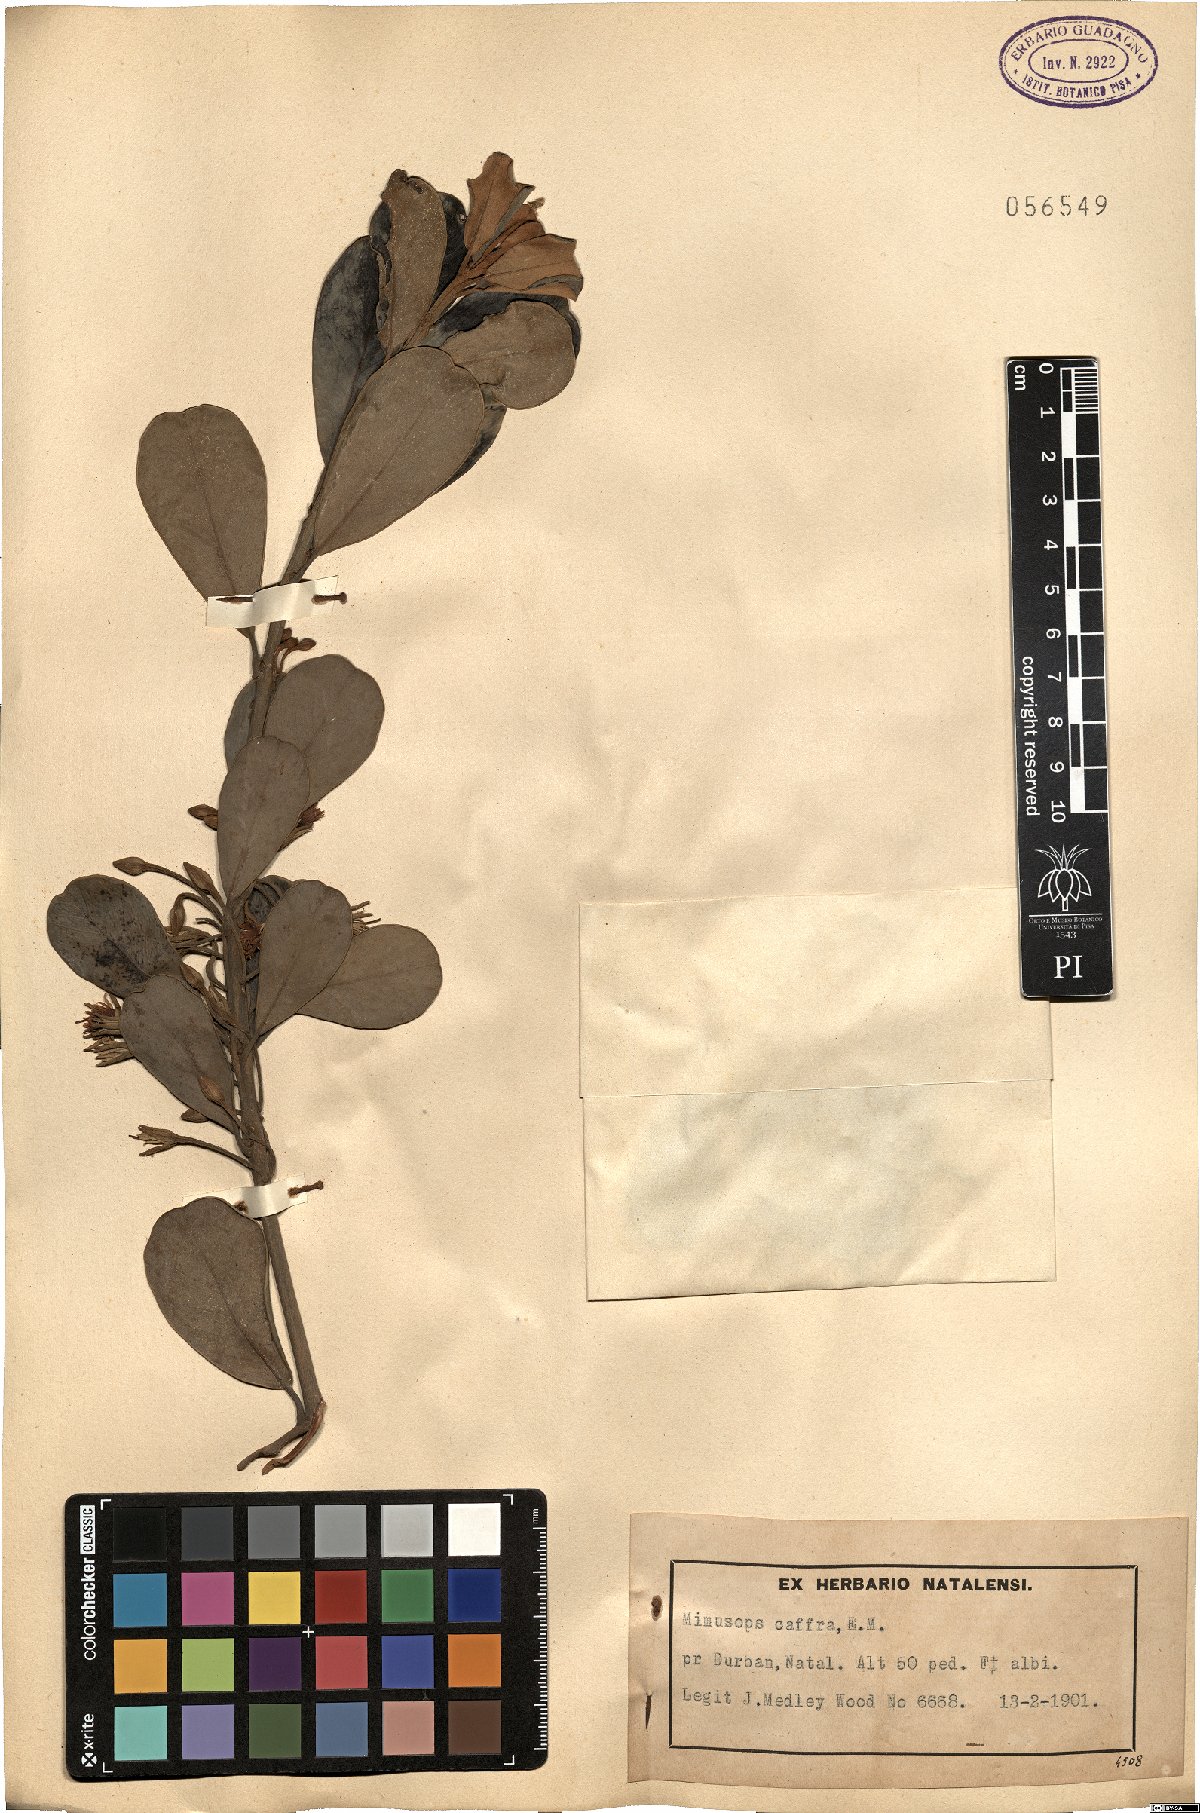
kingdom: Plantae
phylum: Tracheophyta
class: Magnoliopsida
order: Ericales
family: Sapotaceae
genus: Mimusops
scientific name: Mimusops caffra
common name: Coastal red milkwood
